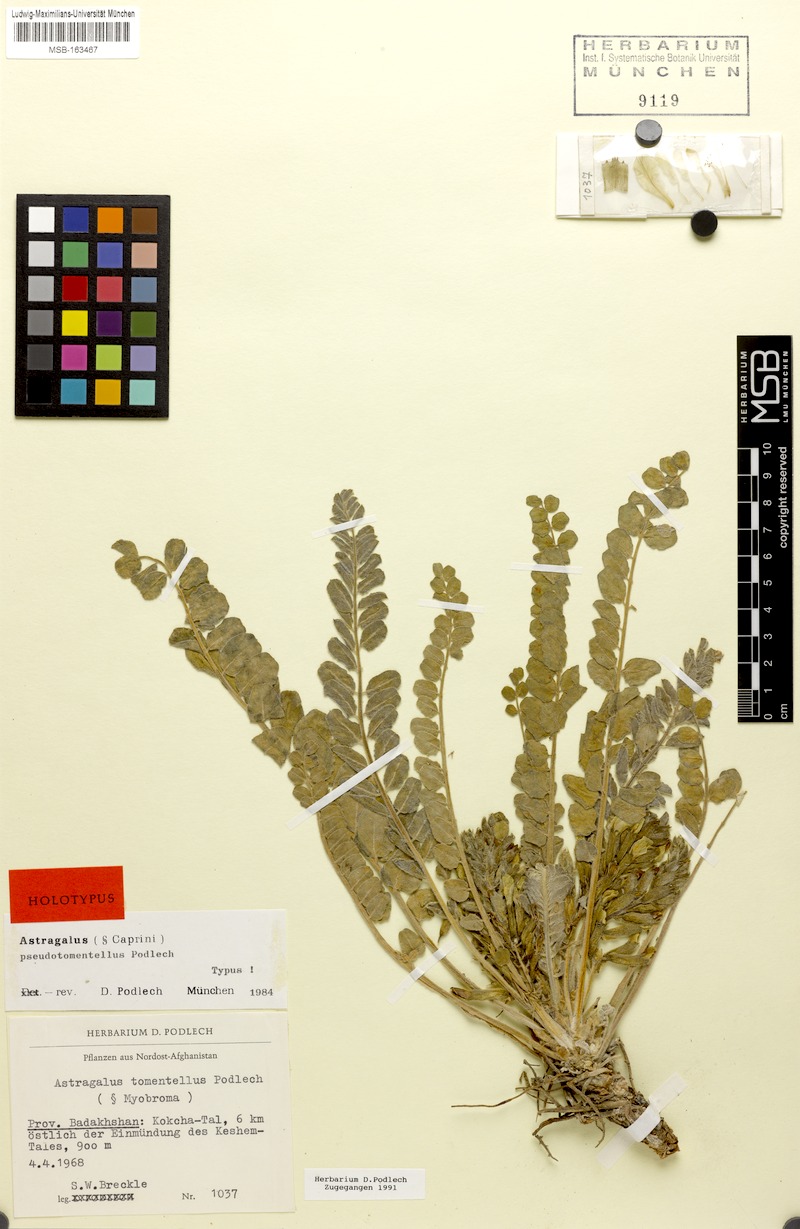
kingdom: Plantae
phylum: Tracheophyta
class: Magnoliopsida
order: Fabales
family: Fabaceae
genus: Astragalus
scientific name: Astragalus pseudotomentellus
